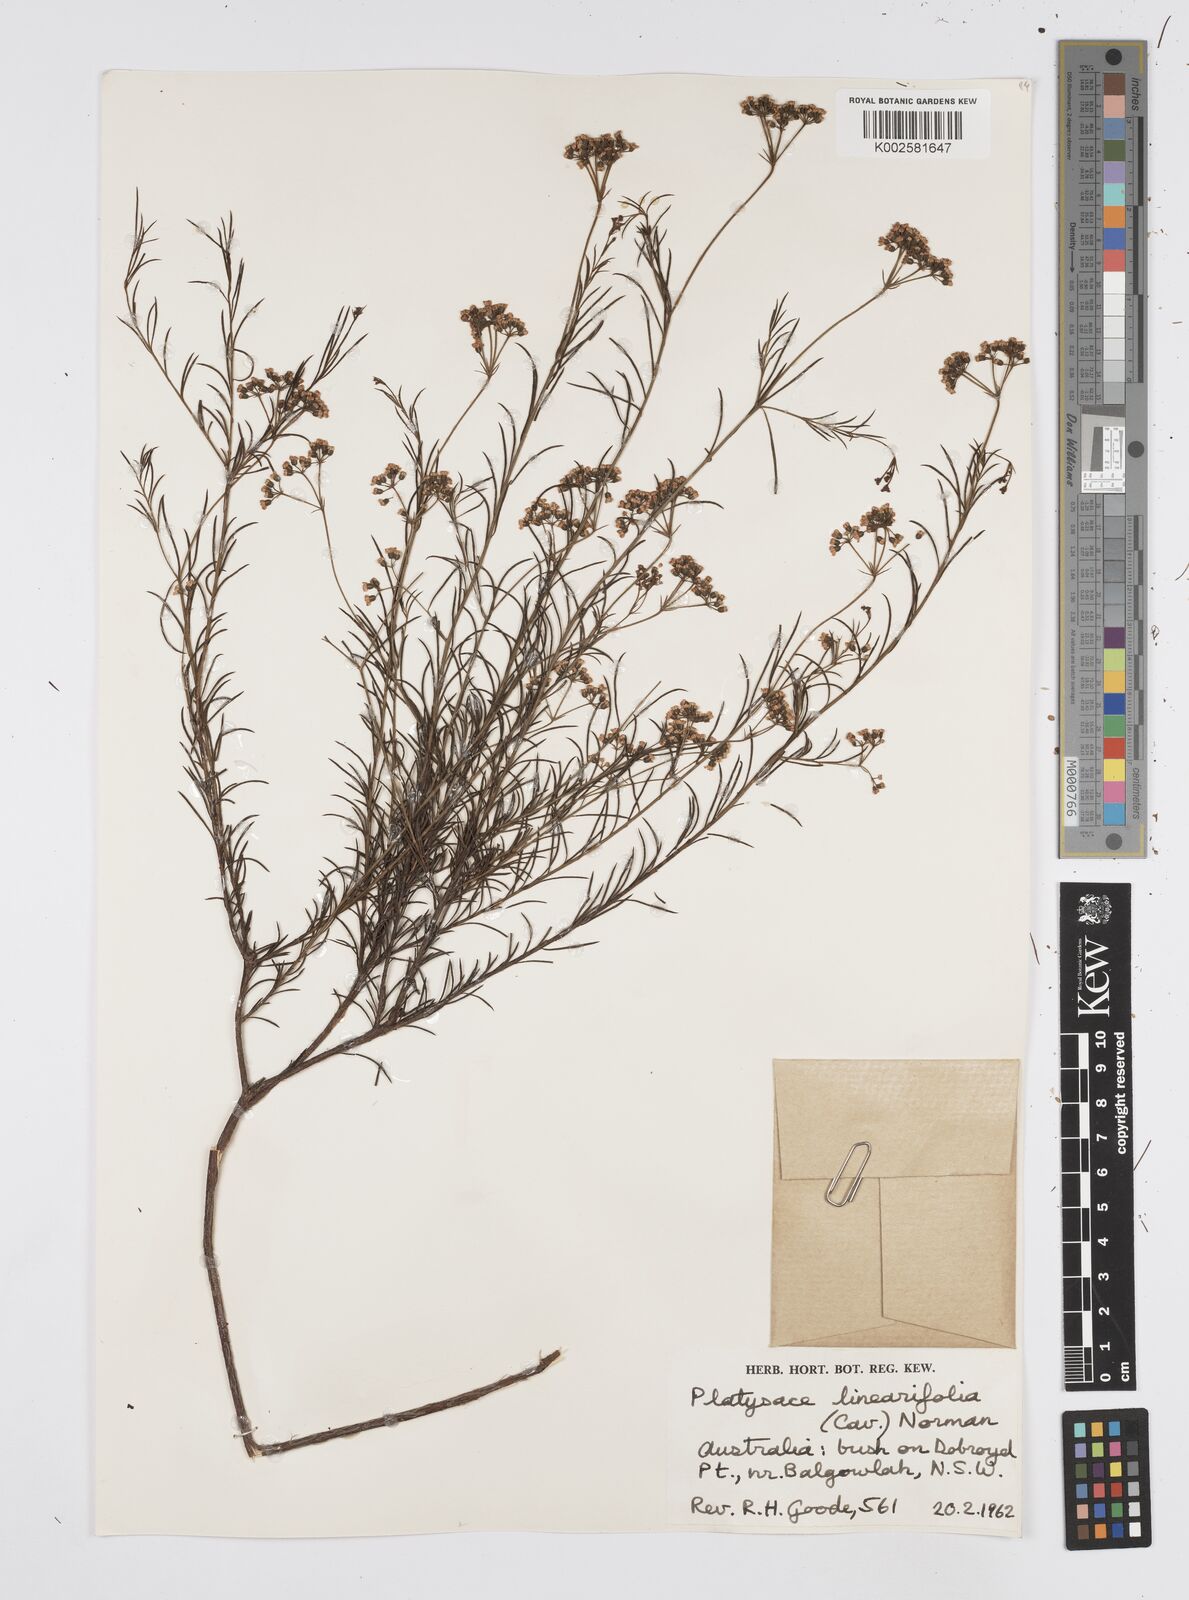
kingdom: Plantae
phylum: Tracheophyta
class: Magnoliopsida
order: Apiales
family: Apiaceae
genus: Platysace
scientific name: Platysace linearifolia
